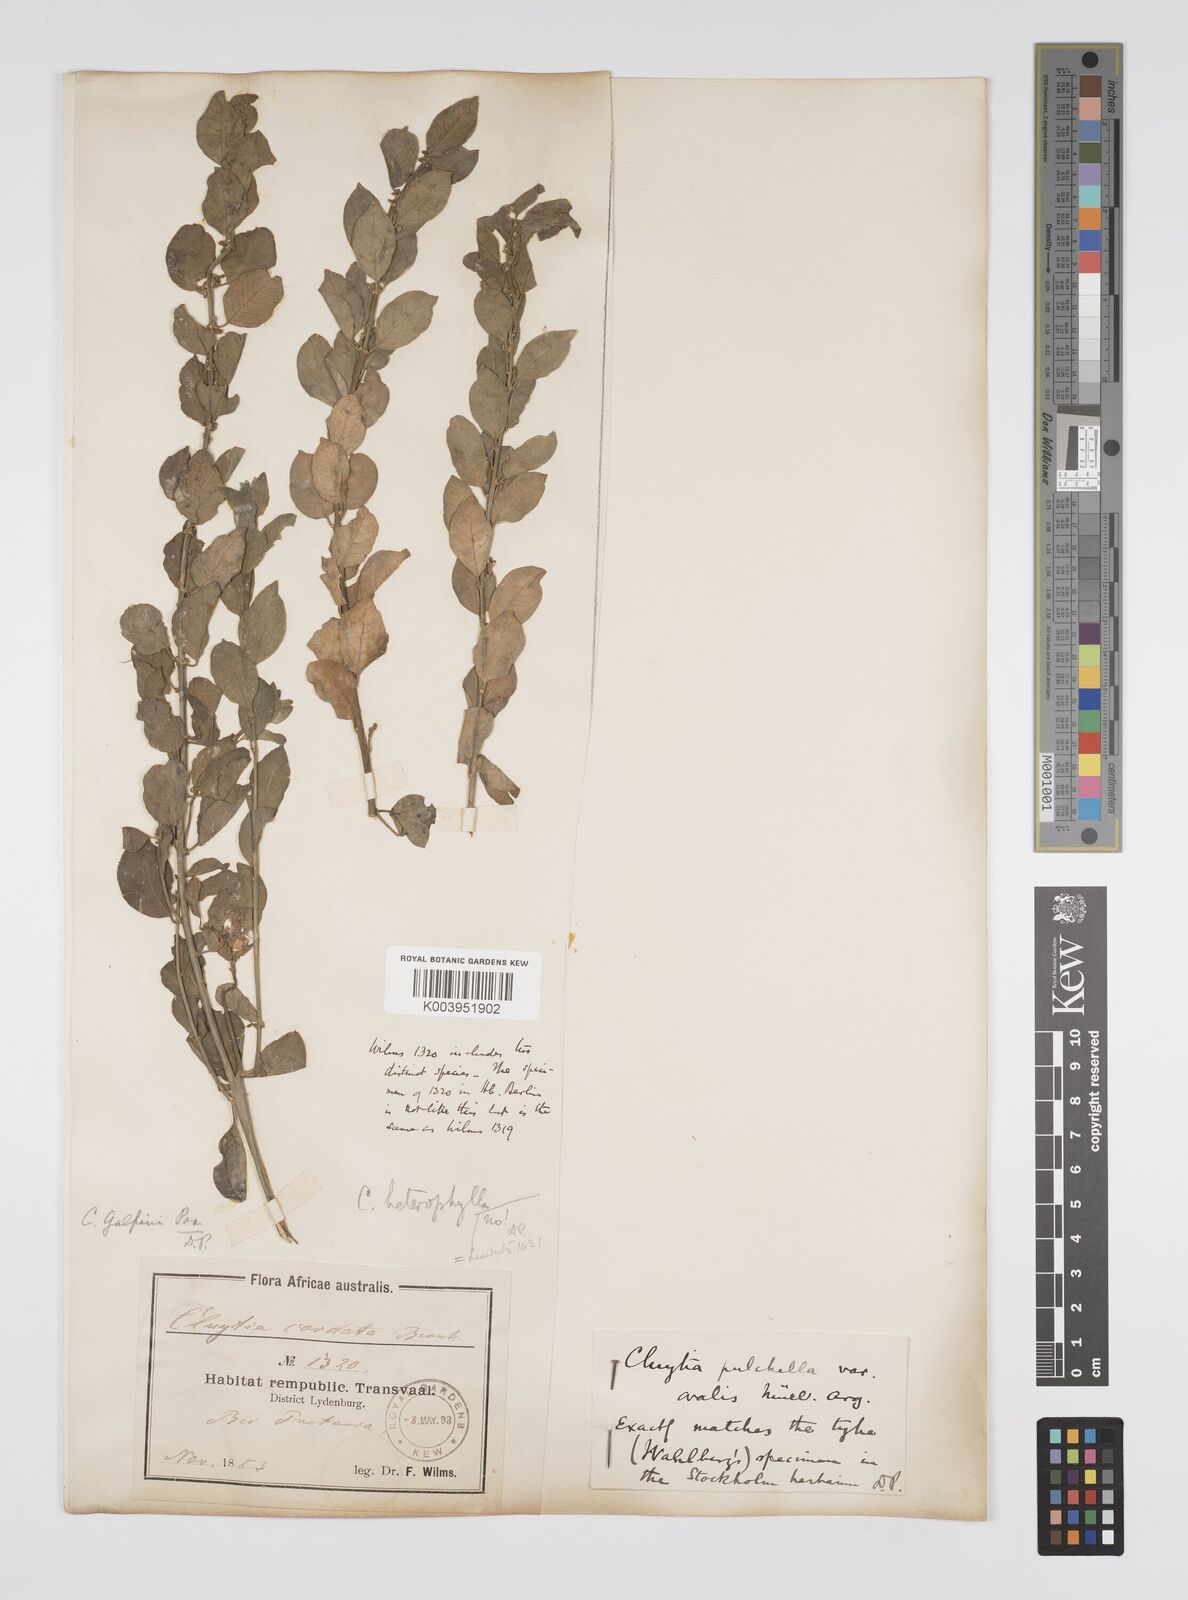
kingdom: Plantae
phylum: Tracheophyta
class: Magnoliopsida
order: Malpighiales
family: Peraceae
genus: Clutia
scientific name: Clutia galpinii
